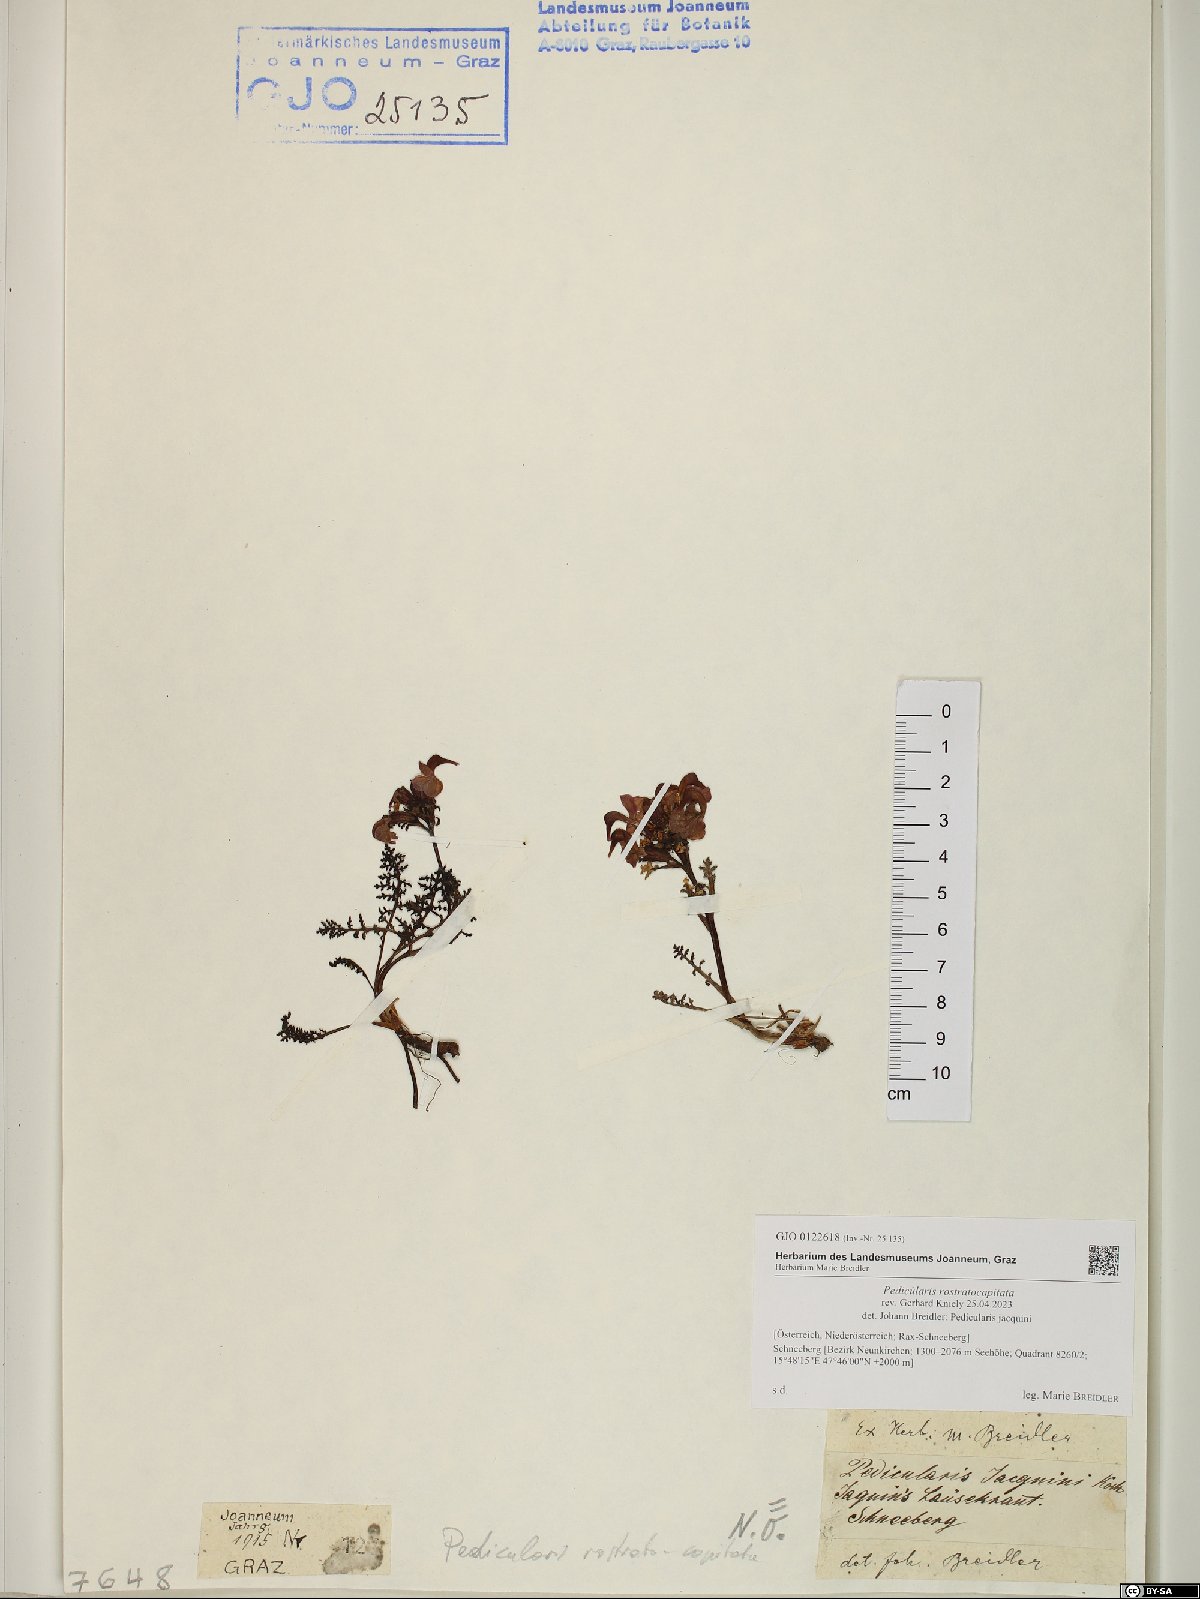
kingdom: Plantae
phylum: Tracheophyta
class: Magnoliopsida
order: Lamiales
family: Orobanchaceae
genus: Pedicularis
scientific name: Pedicularis rostratocapitata
